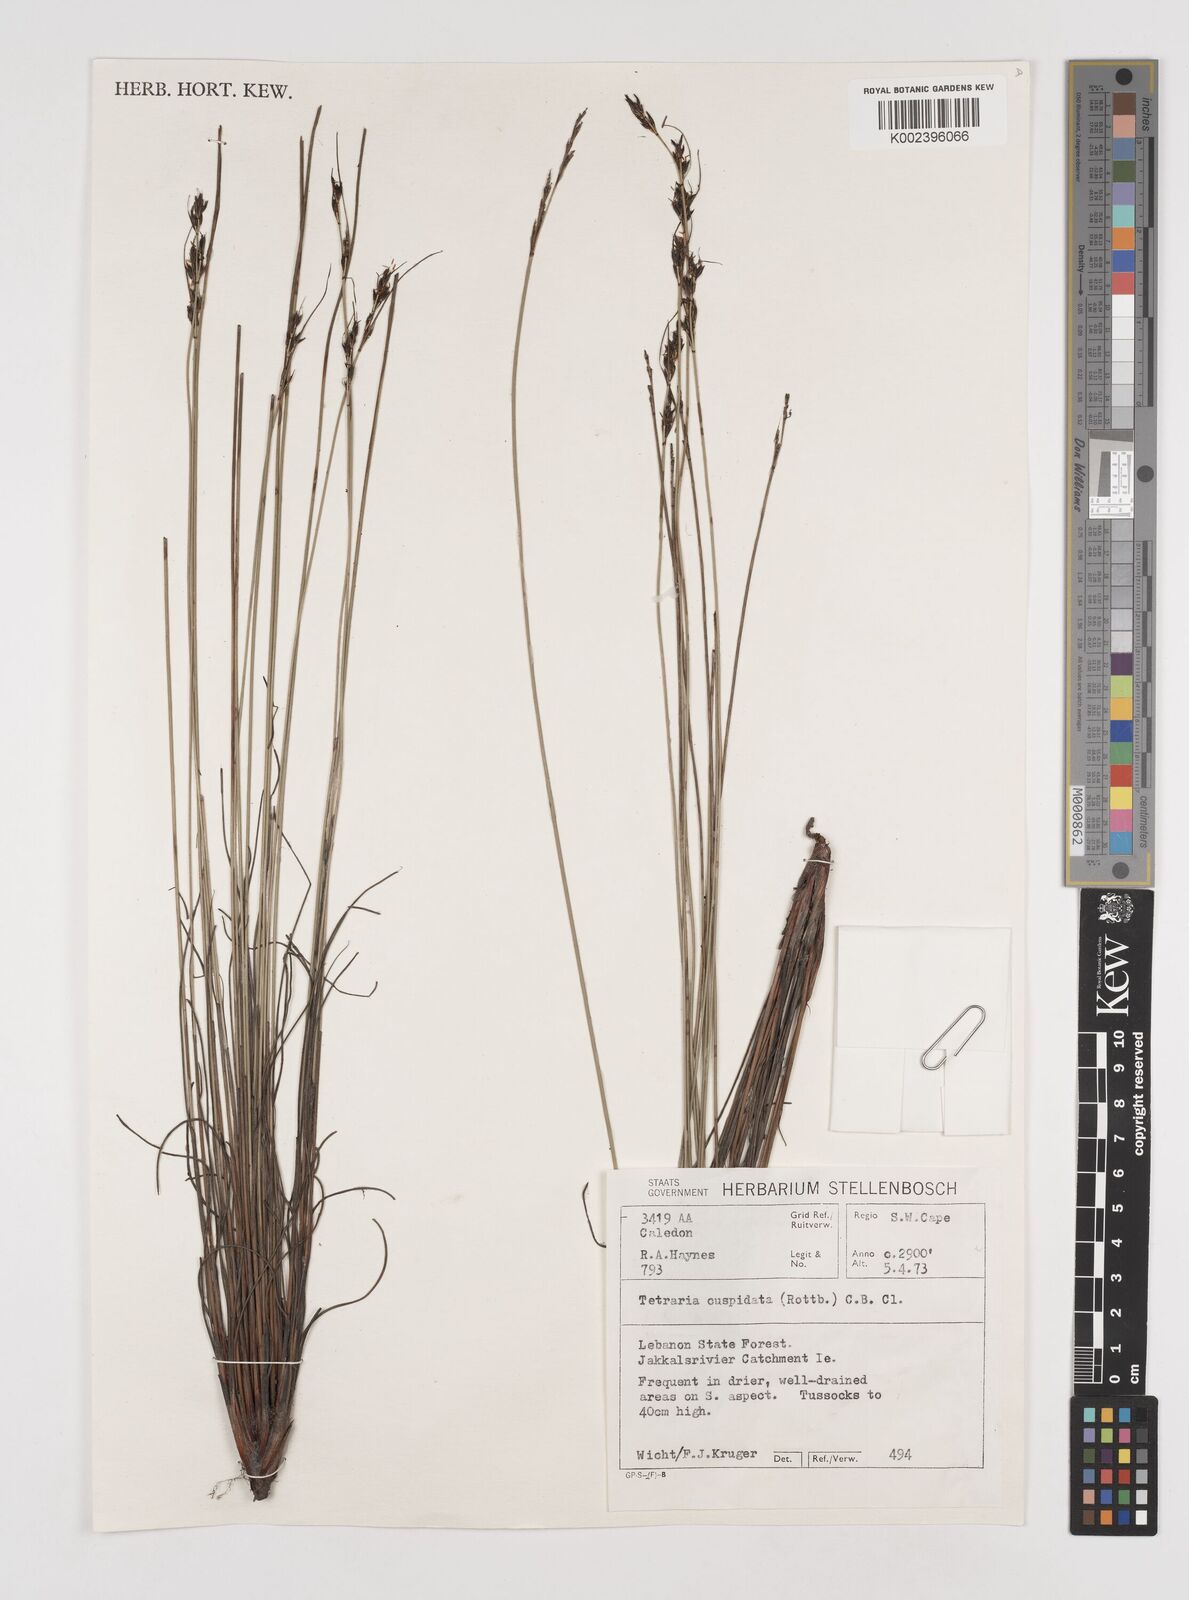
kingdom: Plantae
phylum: Tracheophyta
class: Liliopsida
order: Poales
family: Cyperaceae
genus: Schoenus
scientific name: Schoenus cuspidatus
